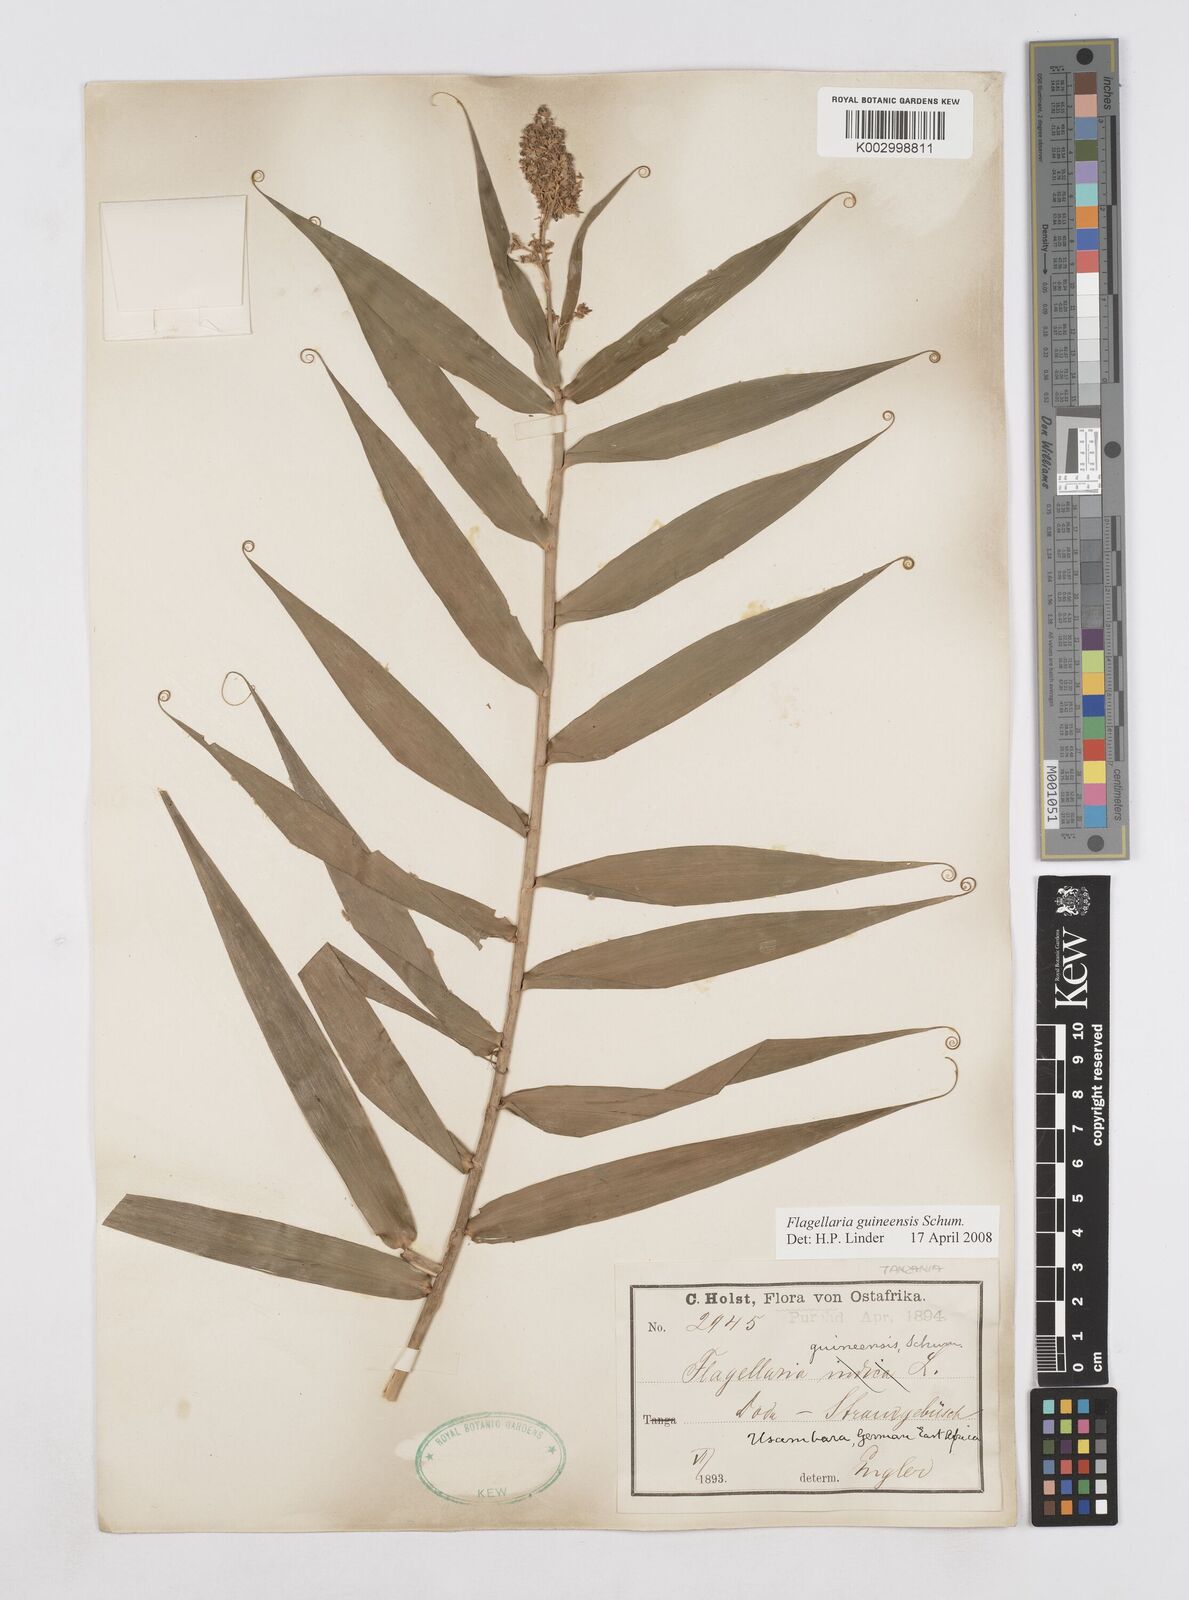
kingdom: Plantae
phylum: Tracheophyta
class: Liliopsida
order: Poales
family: Flagellariaceae
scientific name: Flagellariaceae
